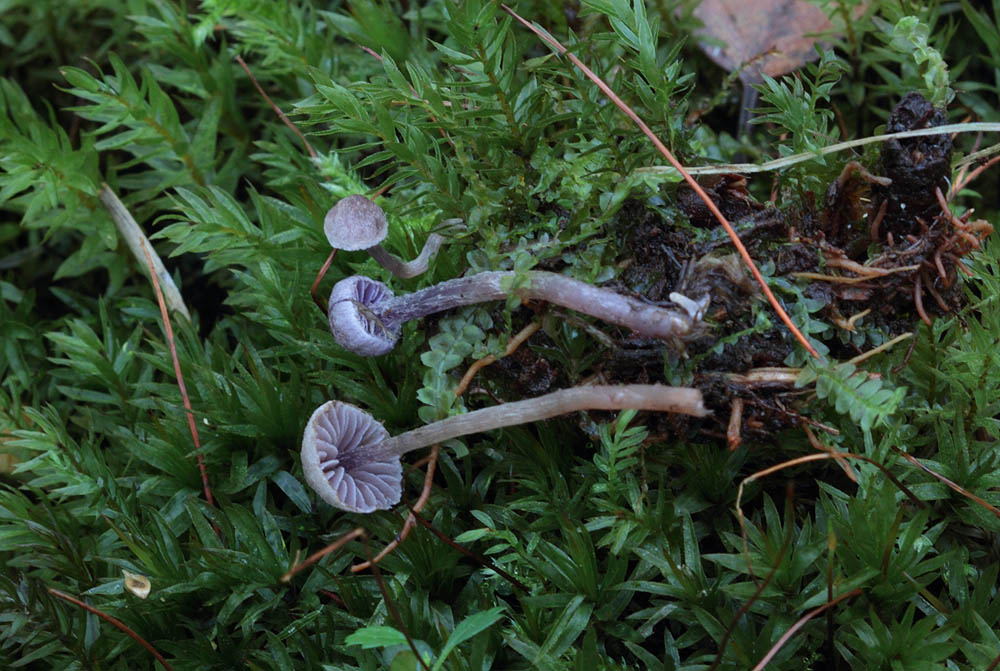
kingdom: Fungi
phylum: Basidiomycota
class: Agaricomycetes
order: Agaricales
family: Cortinariaceae
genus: Cortinarius
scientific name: Cortinarius bibulus
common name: smuk slørhat
